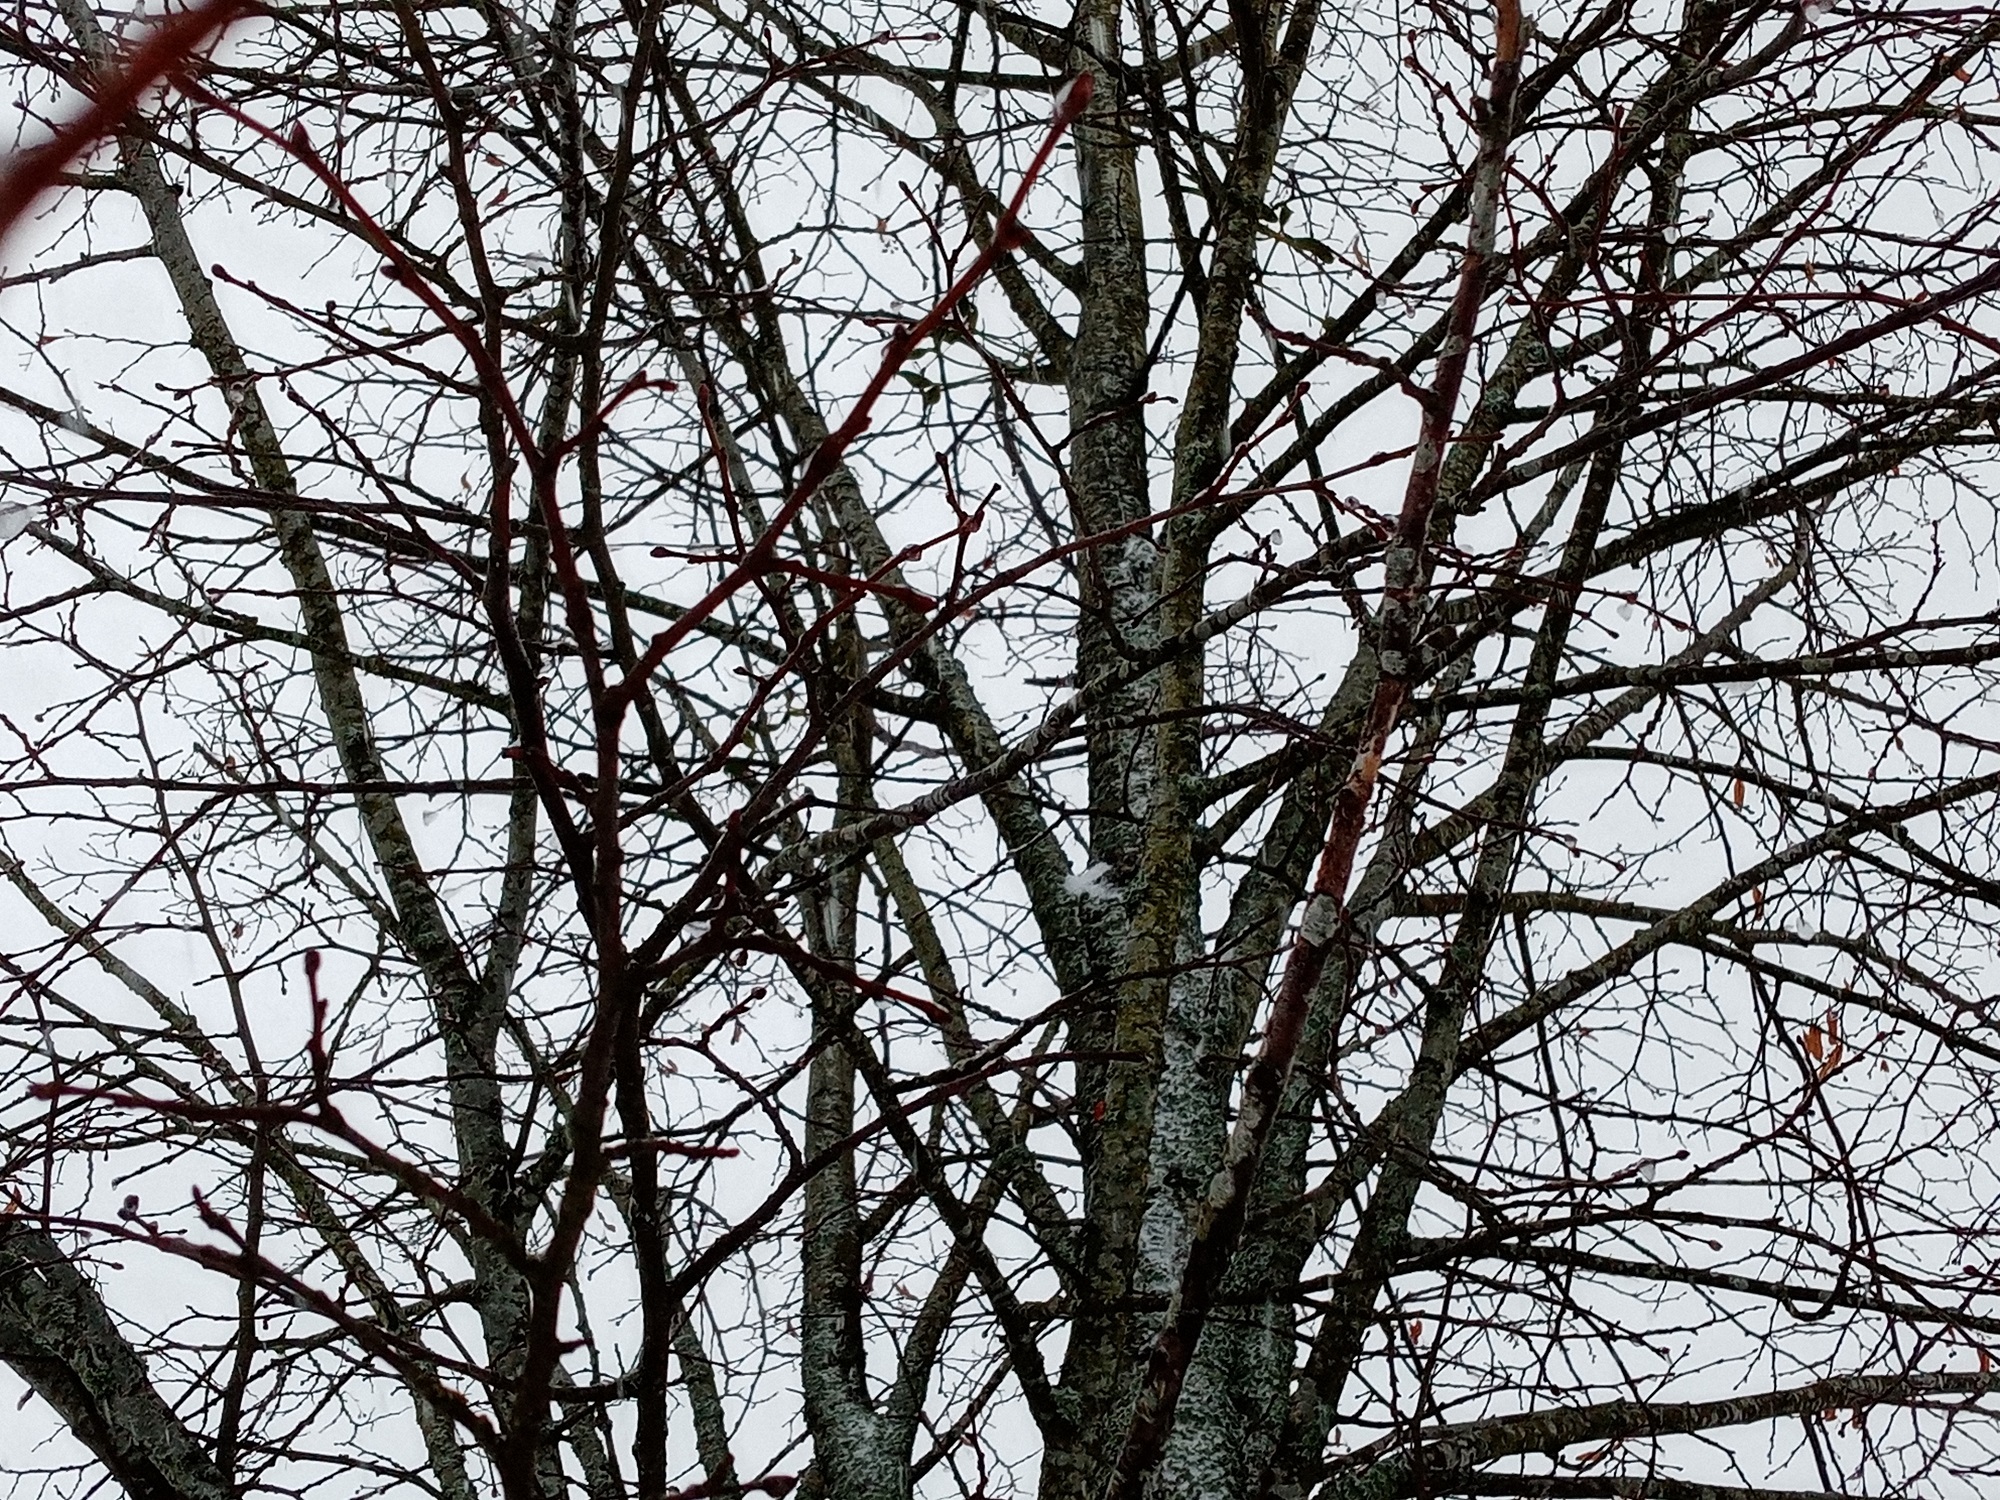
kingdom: Plantae
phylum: Tracheophyta
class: Magnoliopsida
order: Santalales
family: Viscaceae
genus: Viscum
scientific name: Viscum album
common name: Mistletoe
